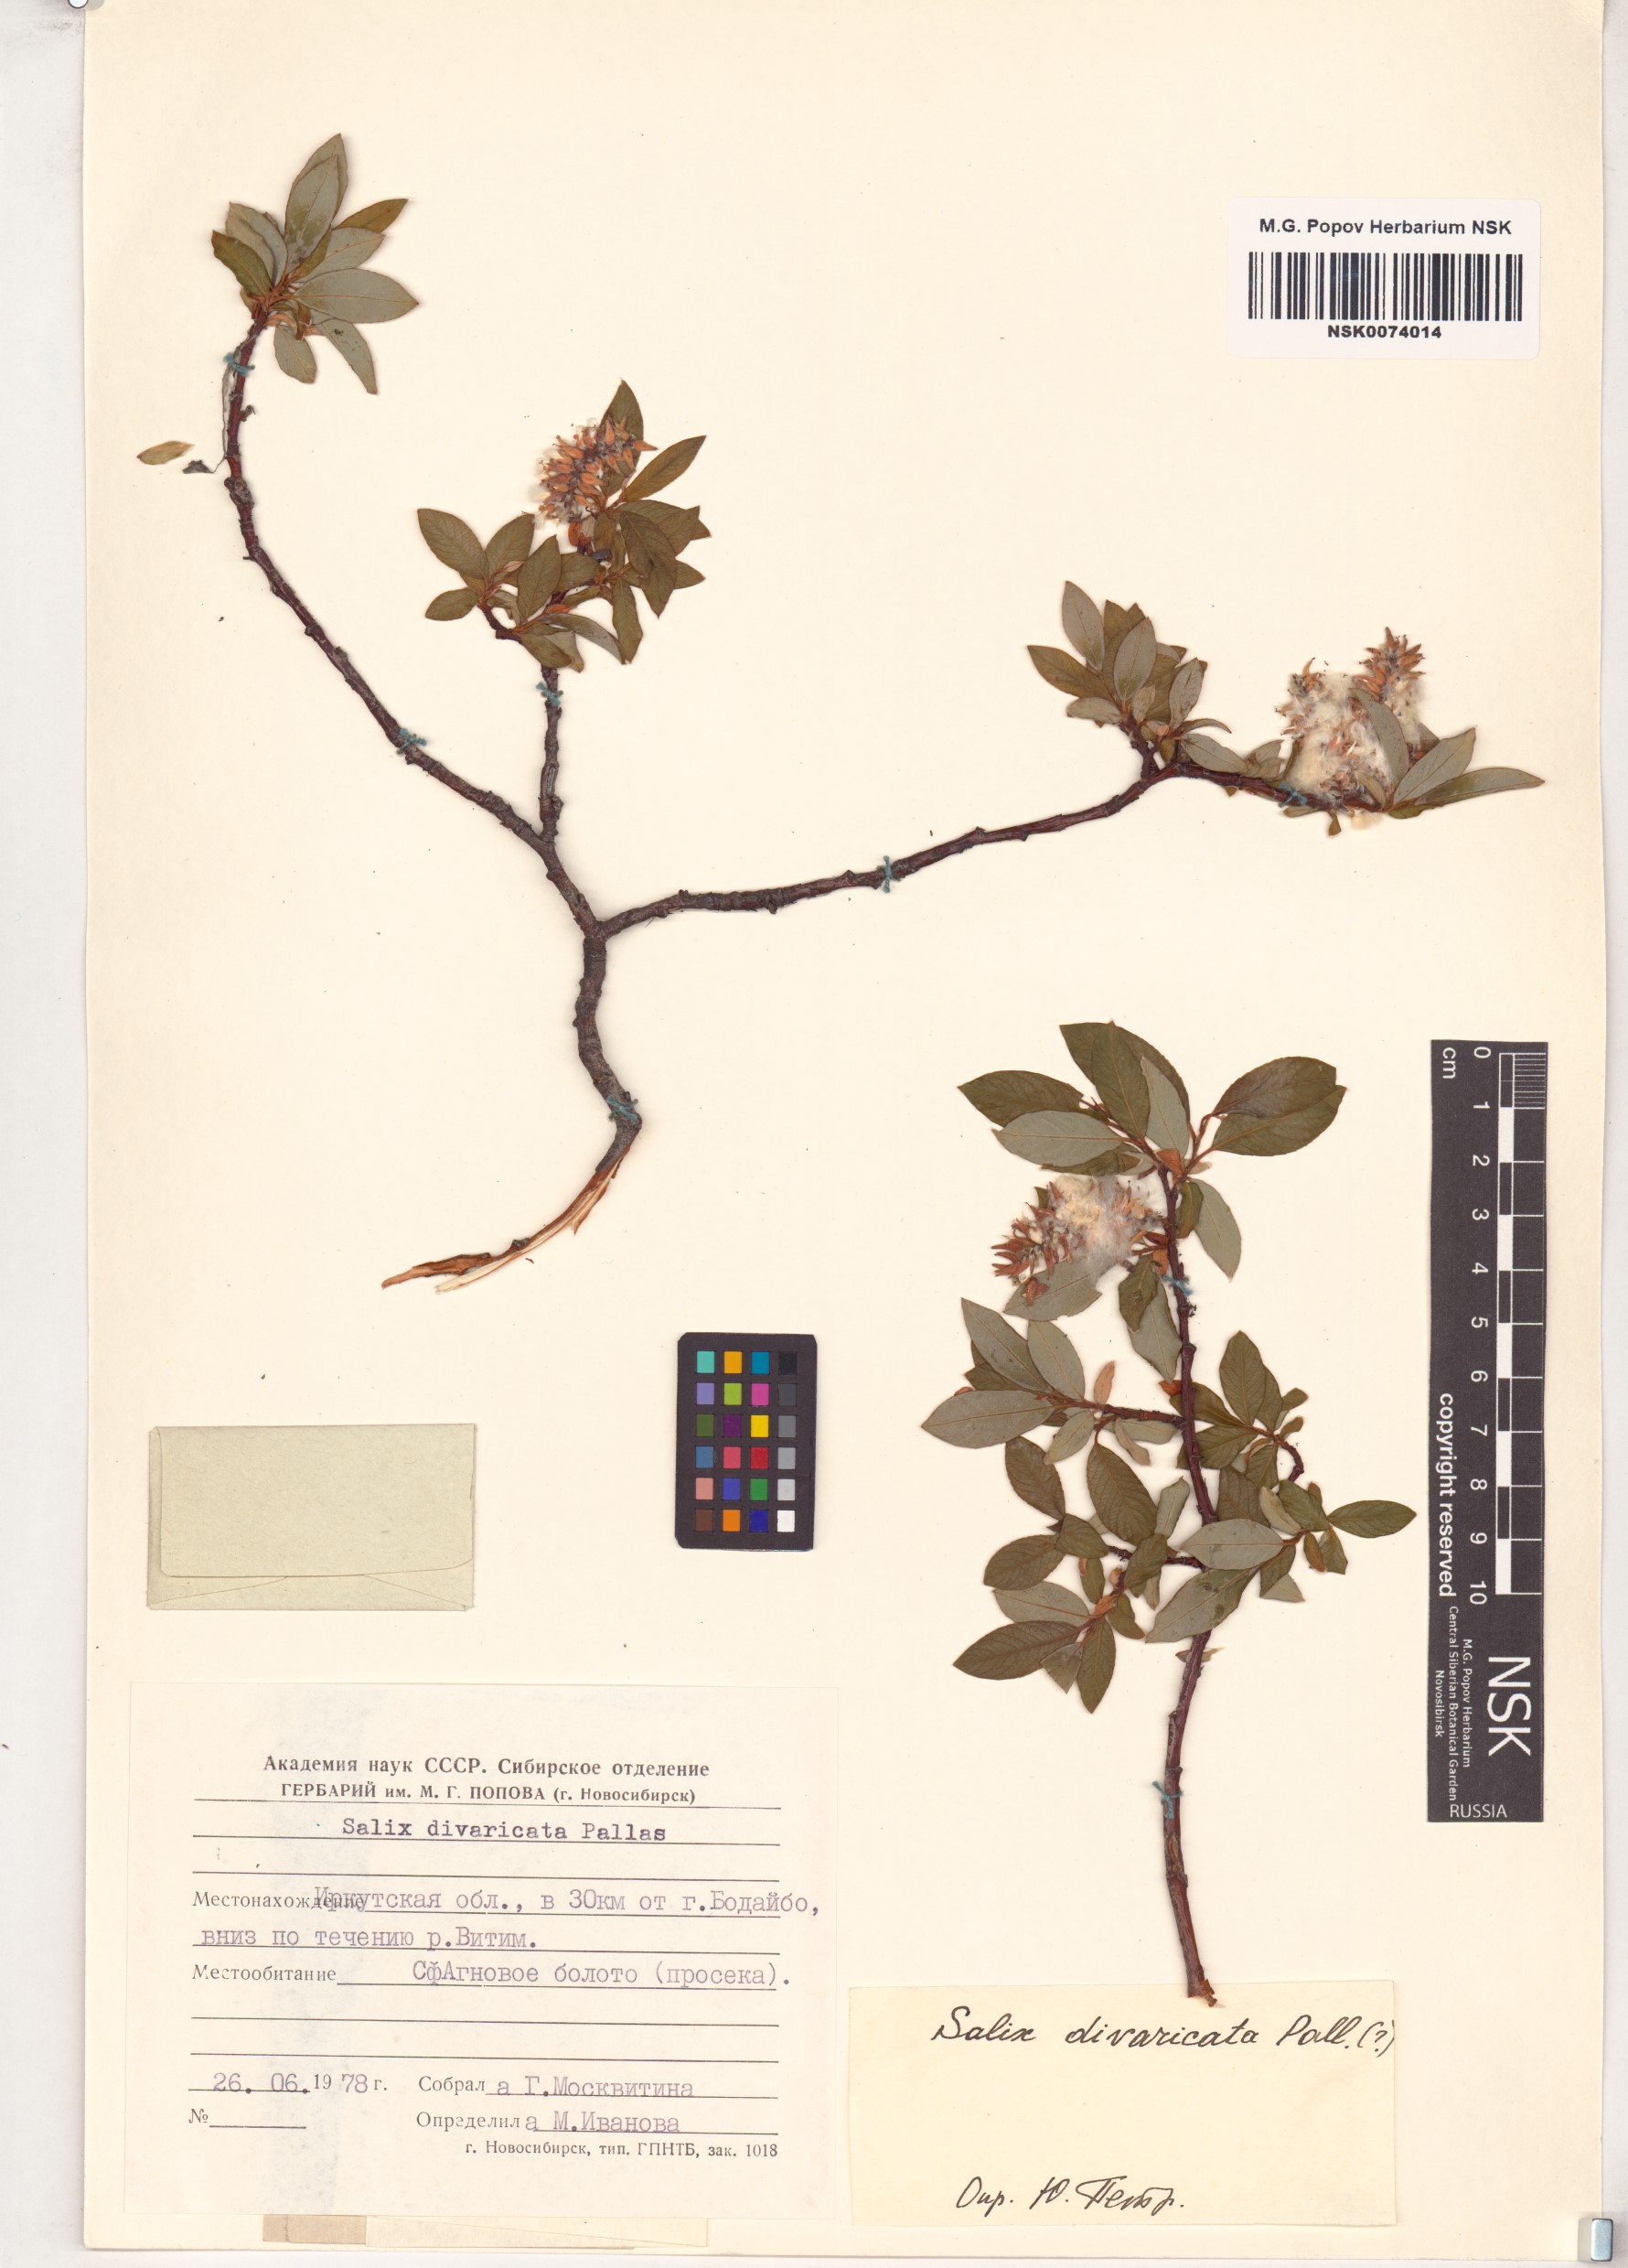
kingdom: Plantae
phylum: Tracheophyta
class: Magnoliopsida
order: Malpighiales
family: Salicaceae
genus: Salix
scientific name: Salix divaricata
